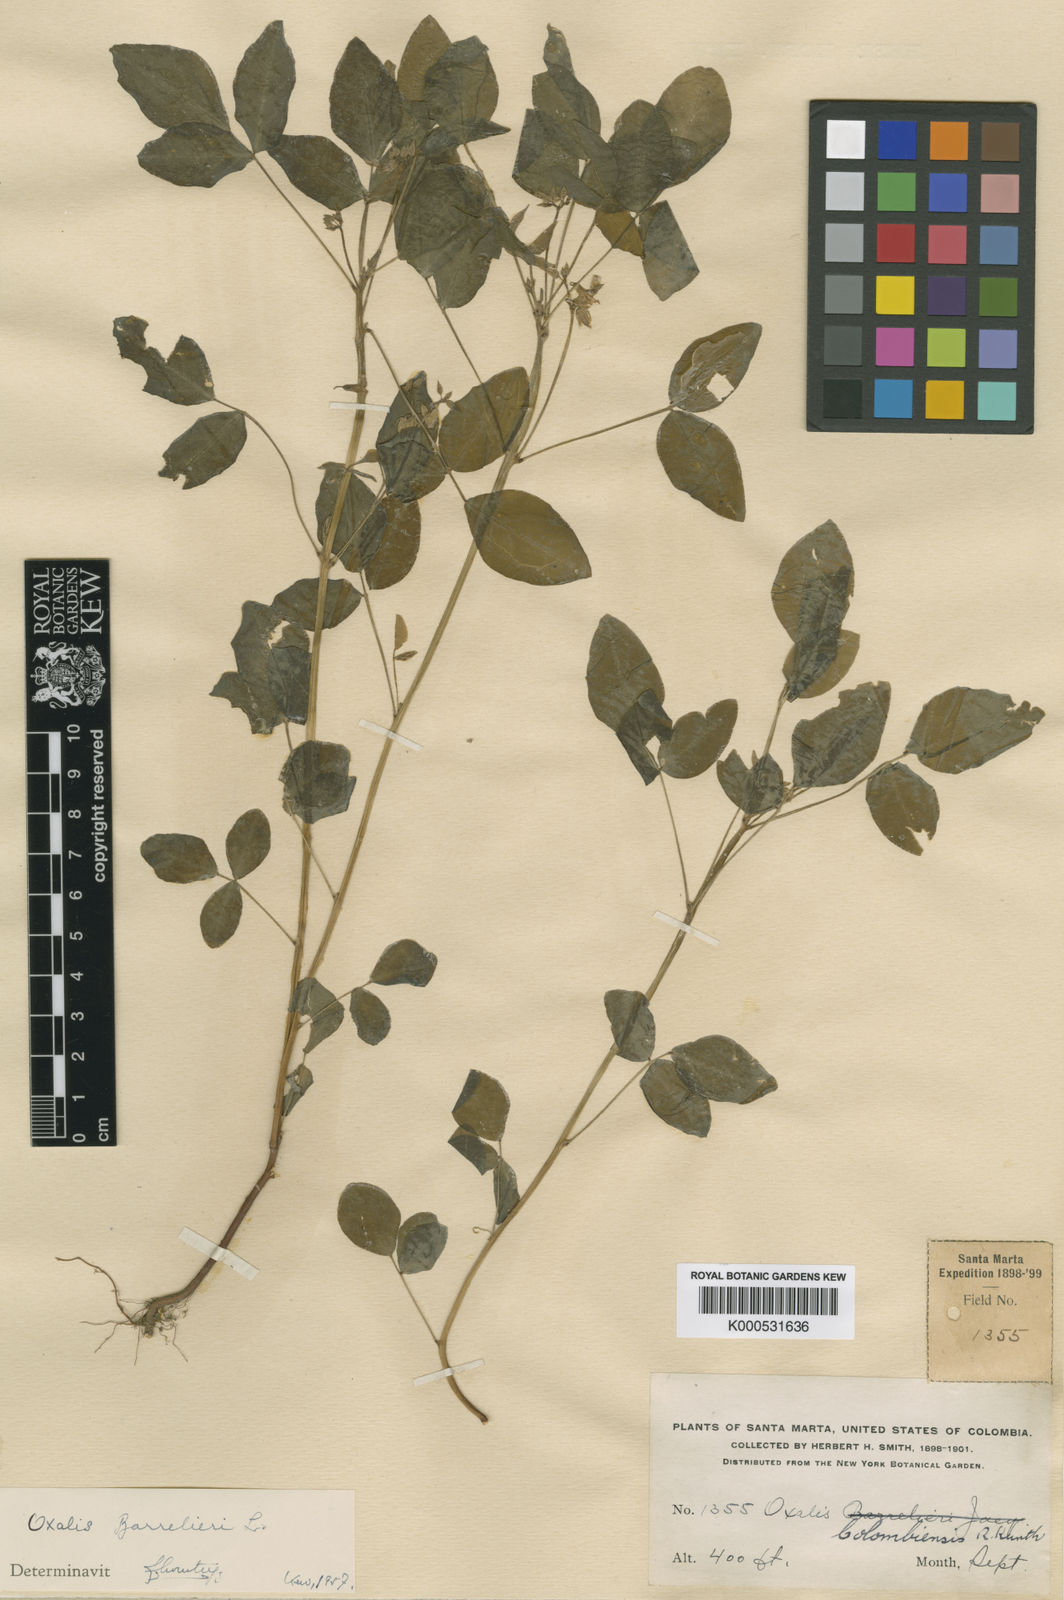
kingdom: Plantae
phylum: Tracheophyta
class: Magnoliopsida
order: Oxalidales
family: Oxalidaceae
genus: Oxalis
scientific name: Oxalis barrelieri
